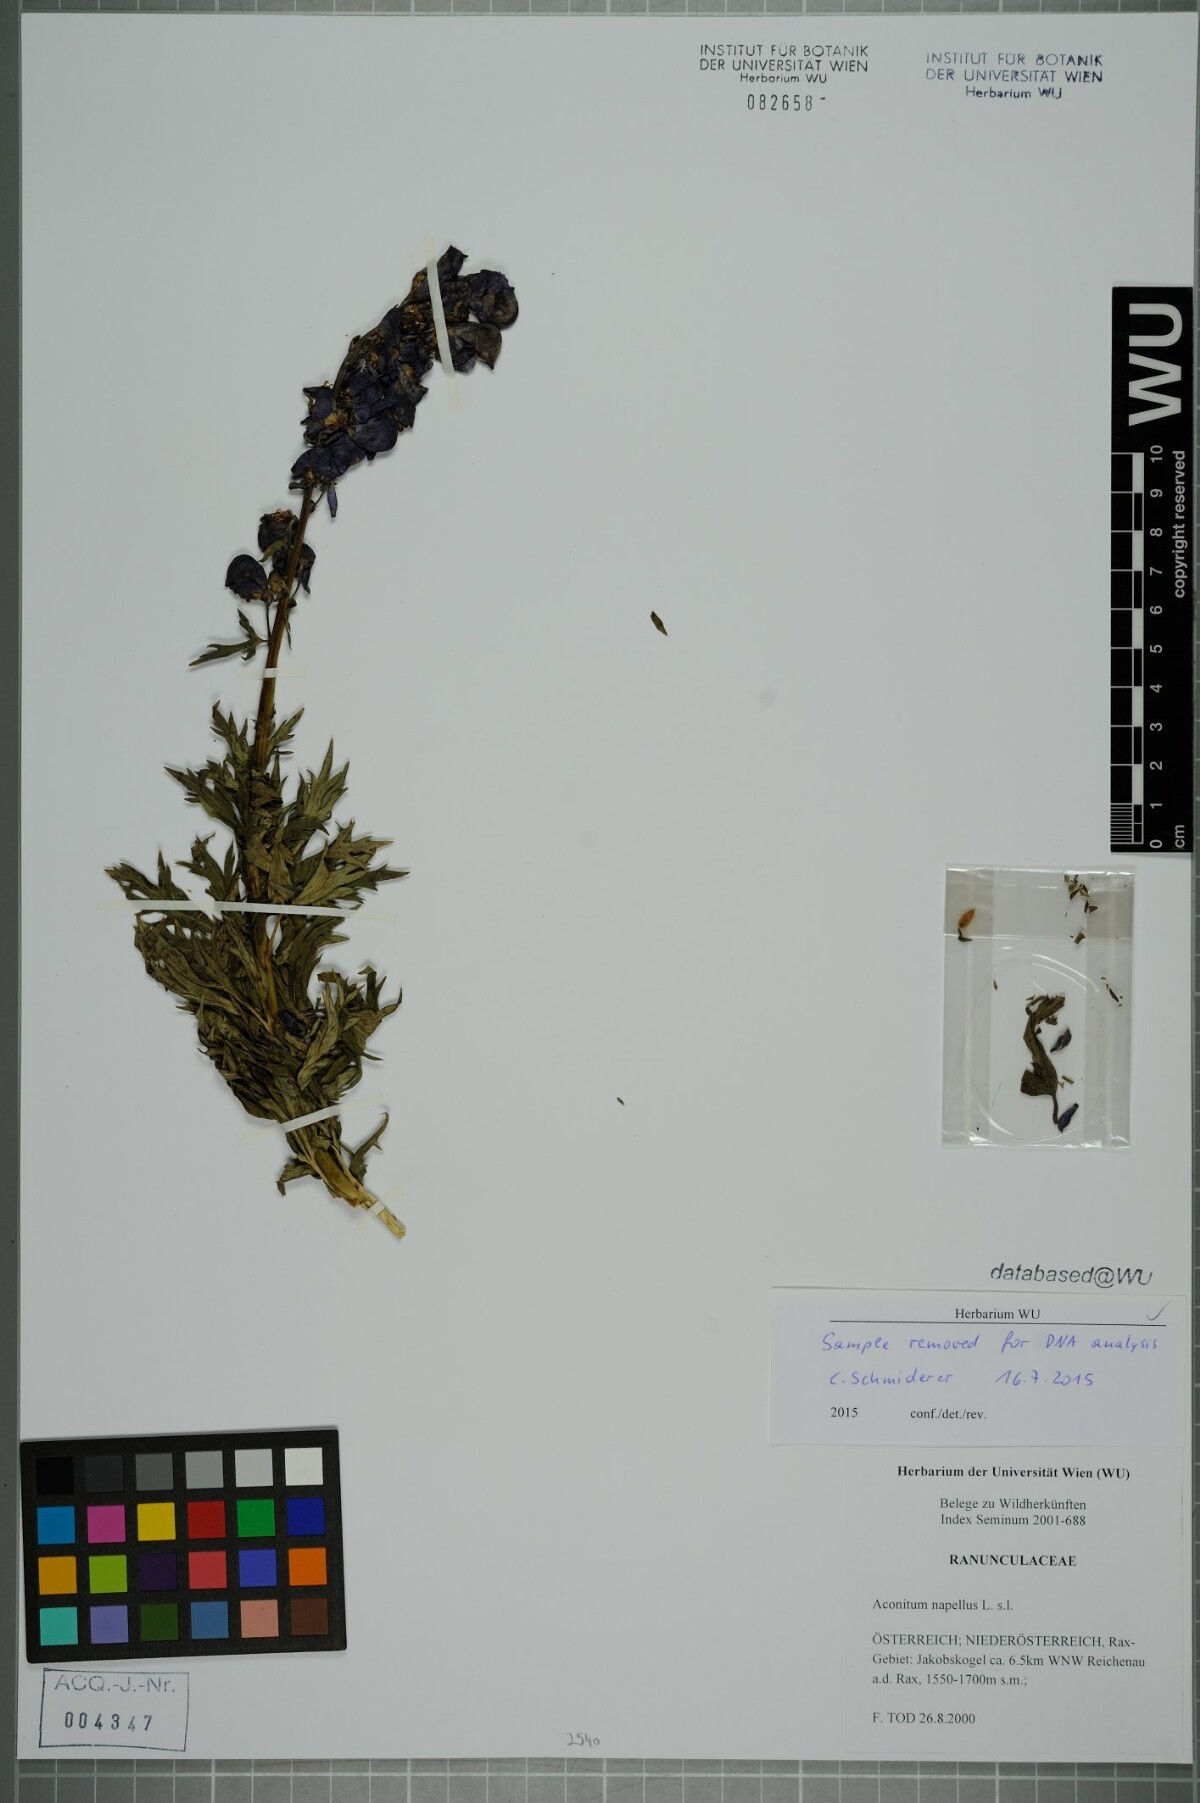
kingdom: Plantae
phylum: Tracheophyta
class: Magnoliopsida
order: Ranunculales
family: Ranunculaceae
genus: Aconitum
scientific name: Aconitum napellus
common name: Garden monkshood
